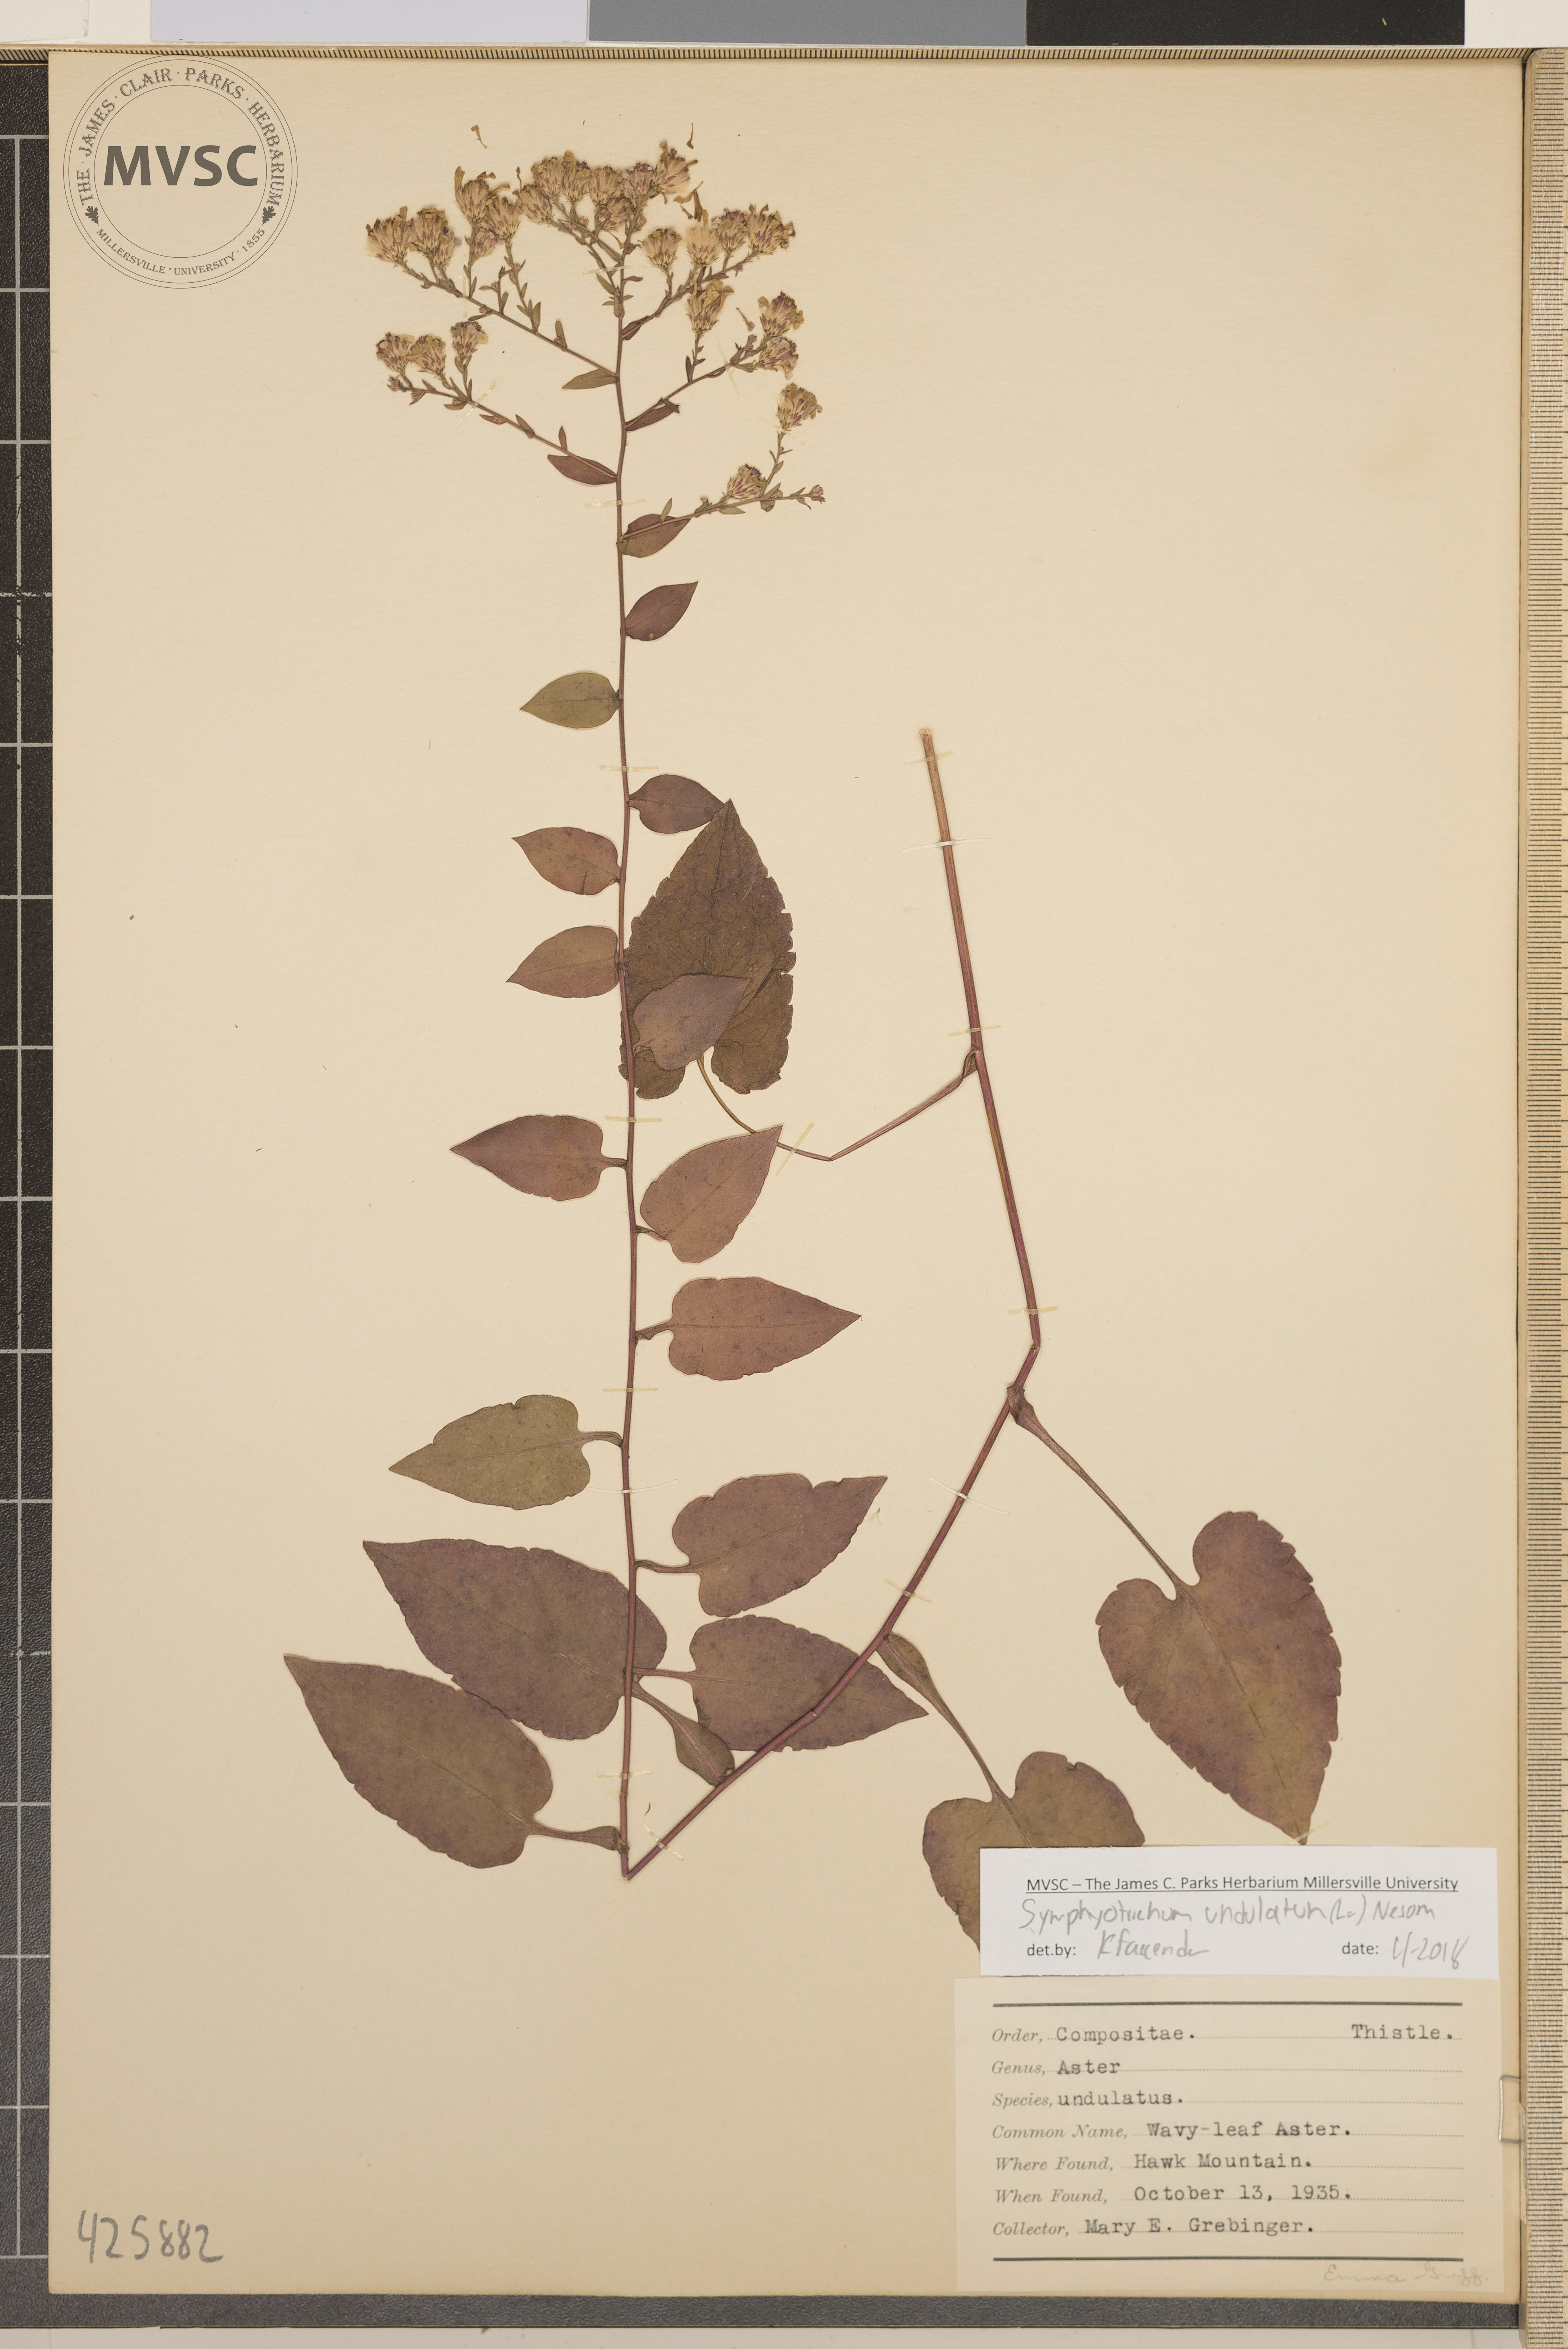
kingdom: Plantae
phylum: Tracheophyta
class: Magnoliopsida
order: Asterales
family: Asteraceae
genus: Symphyotrichum
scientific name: Symphyotrichum undulatum
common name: Wavy-leaf Aster
